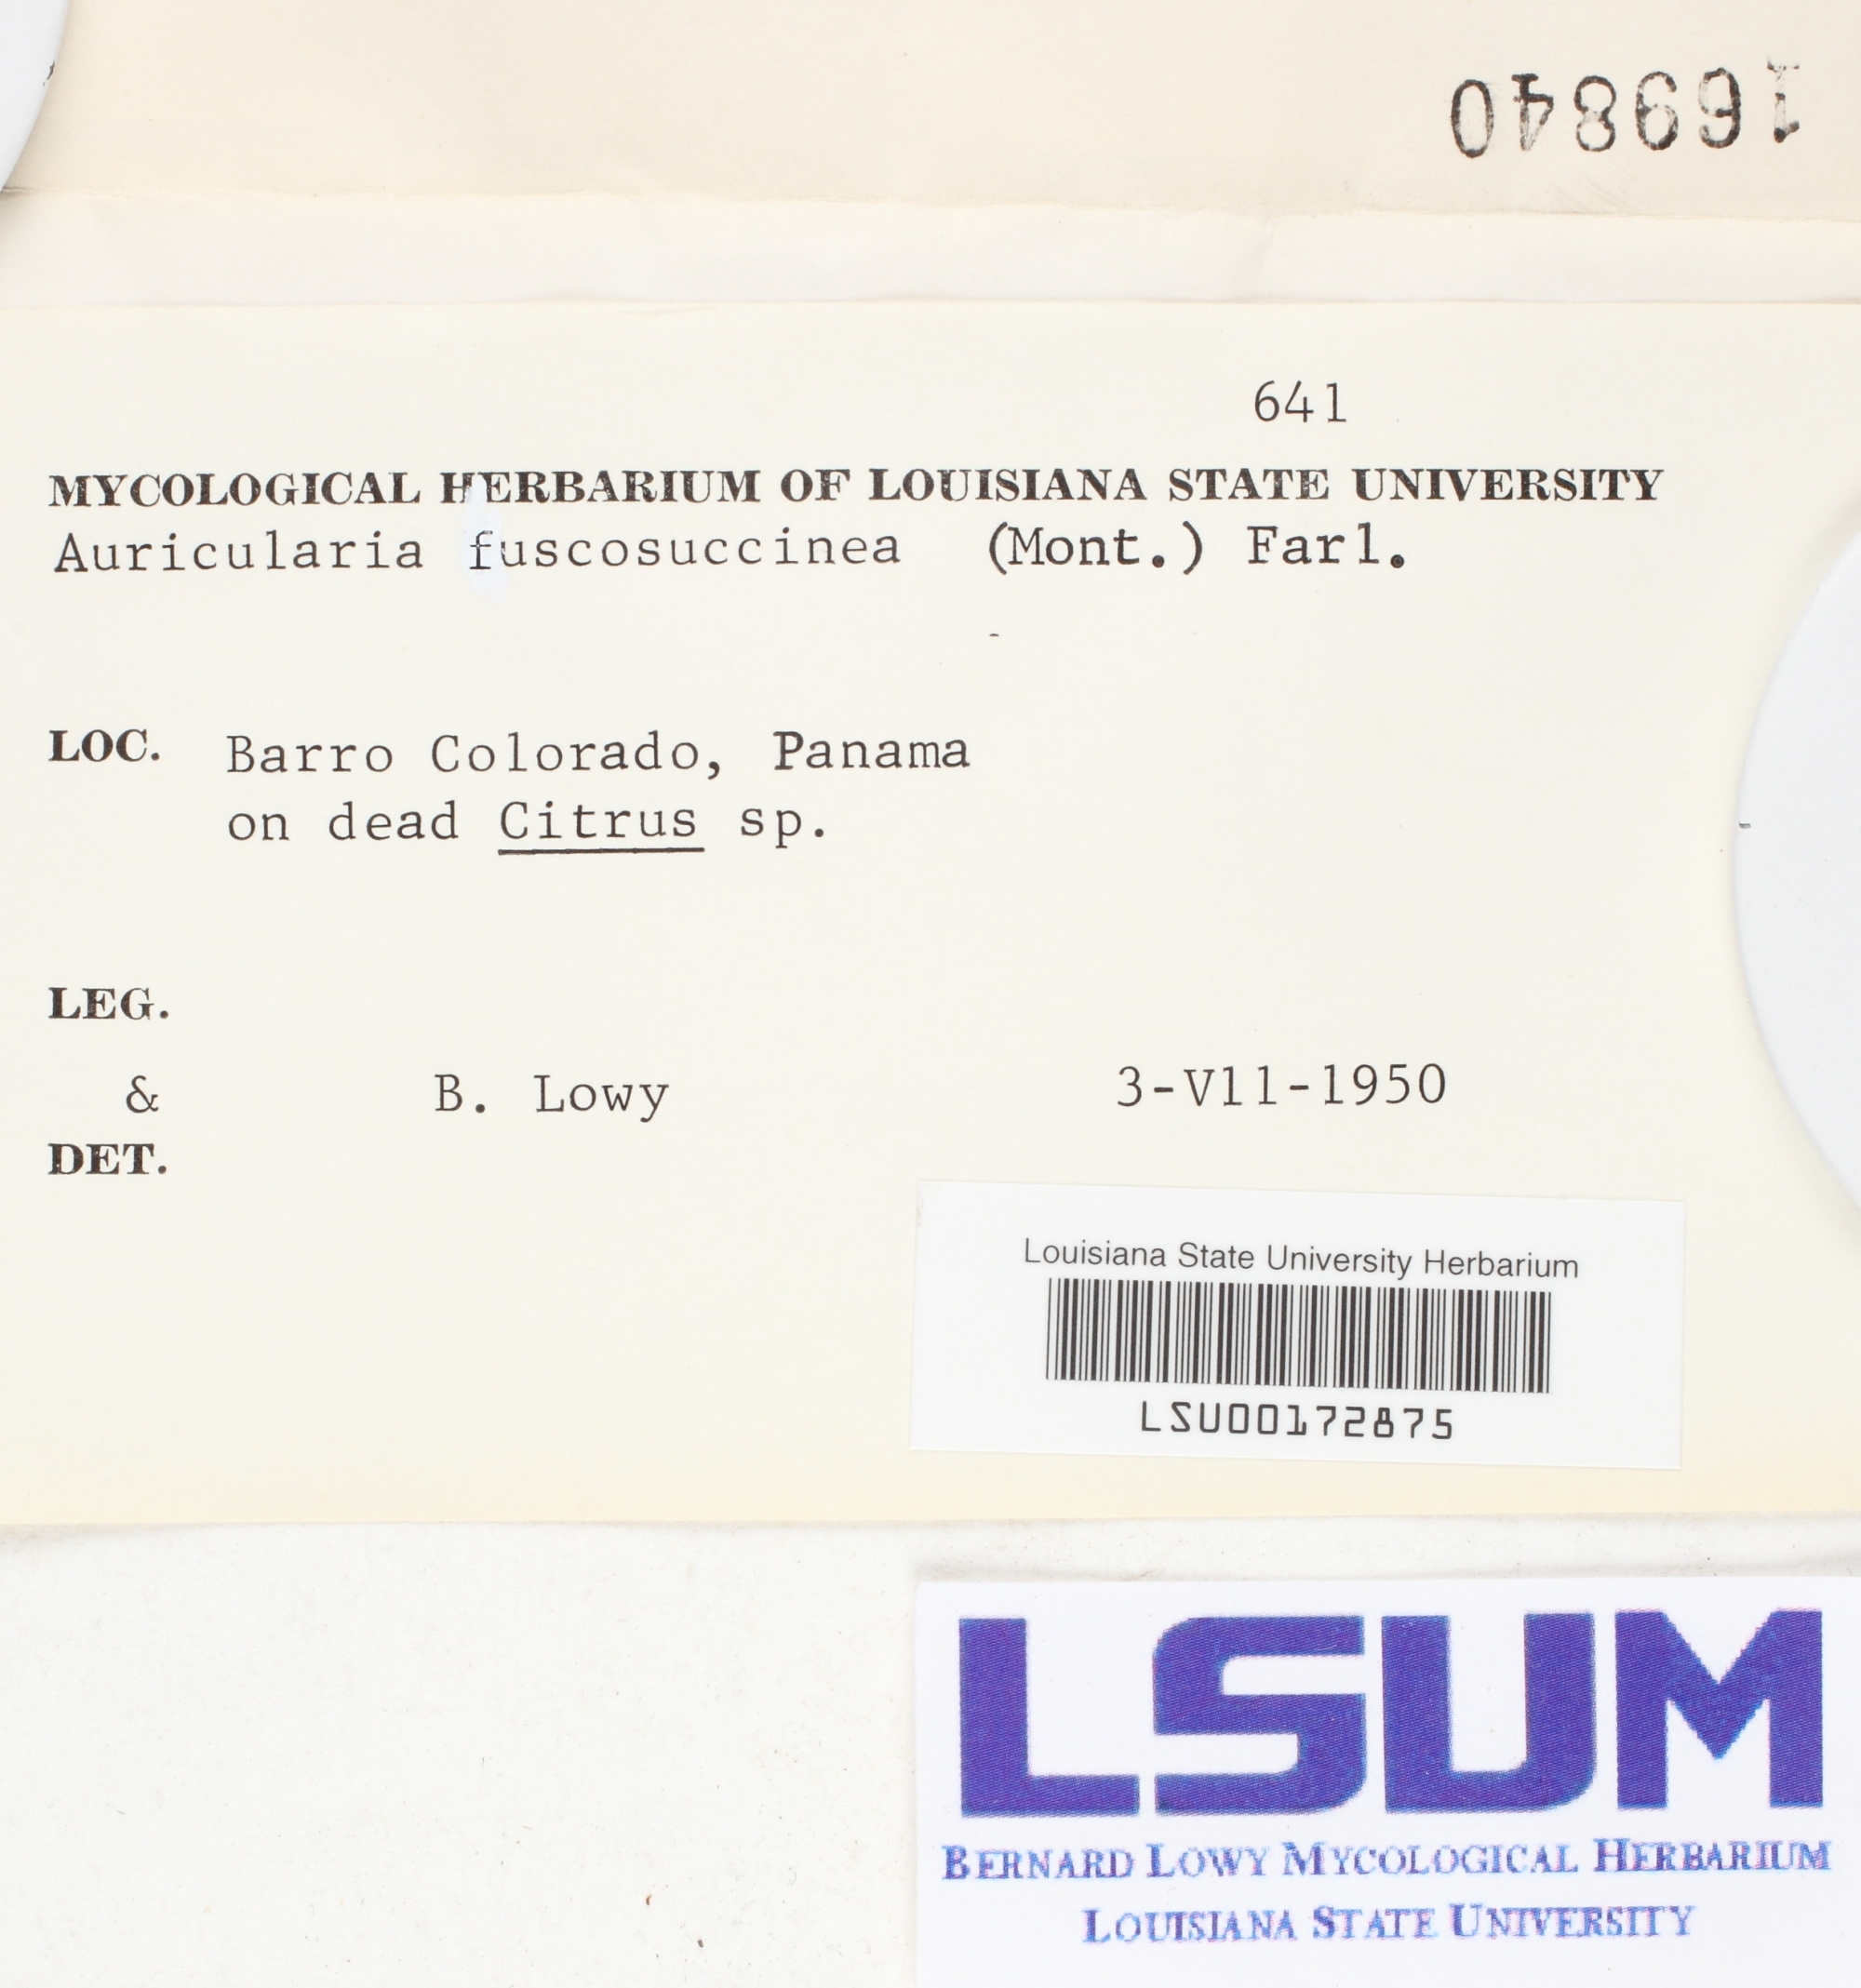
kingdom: Fungi
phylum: Basidiomycota
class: Agaricomycetes
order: Auriculariales
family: Auriculariaceae
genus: Auricularia
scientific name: Auricularia fuscosuccinea
